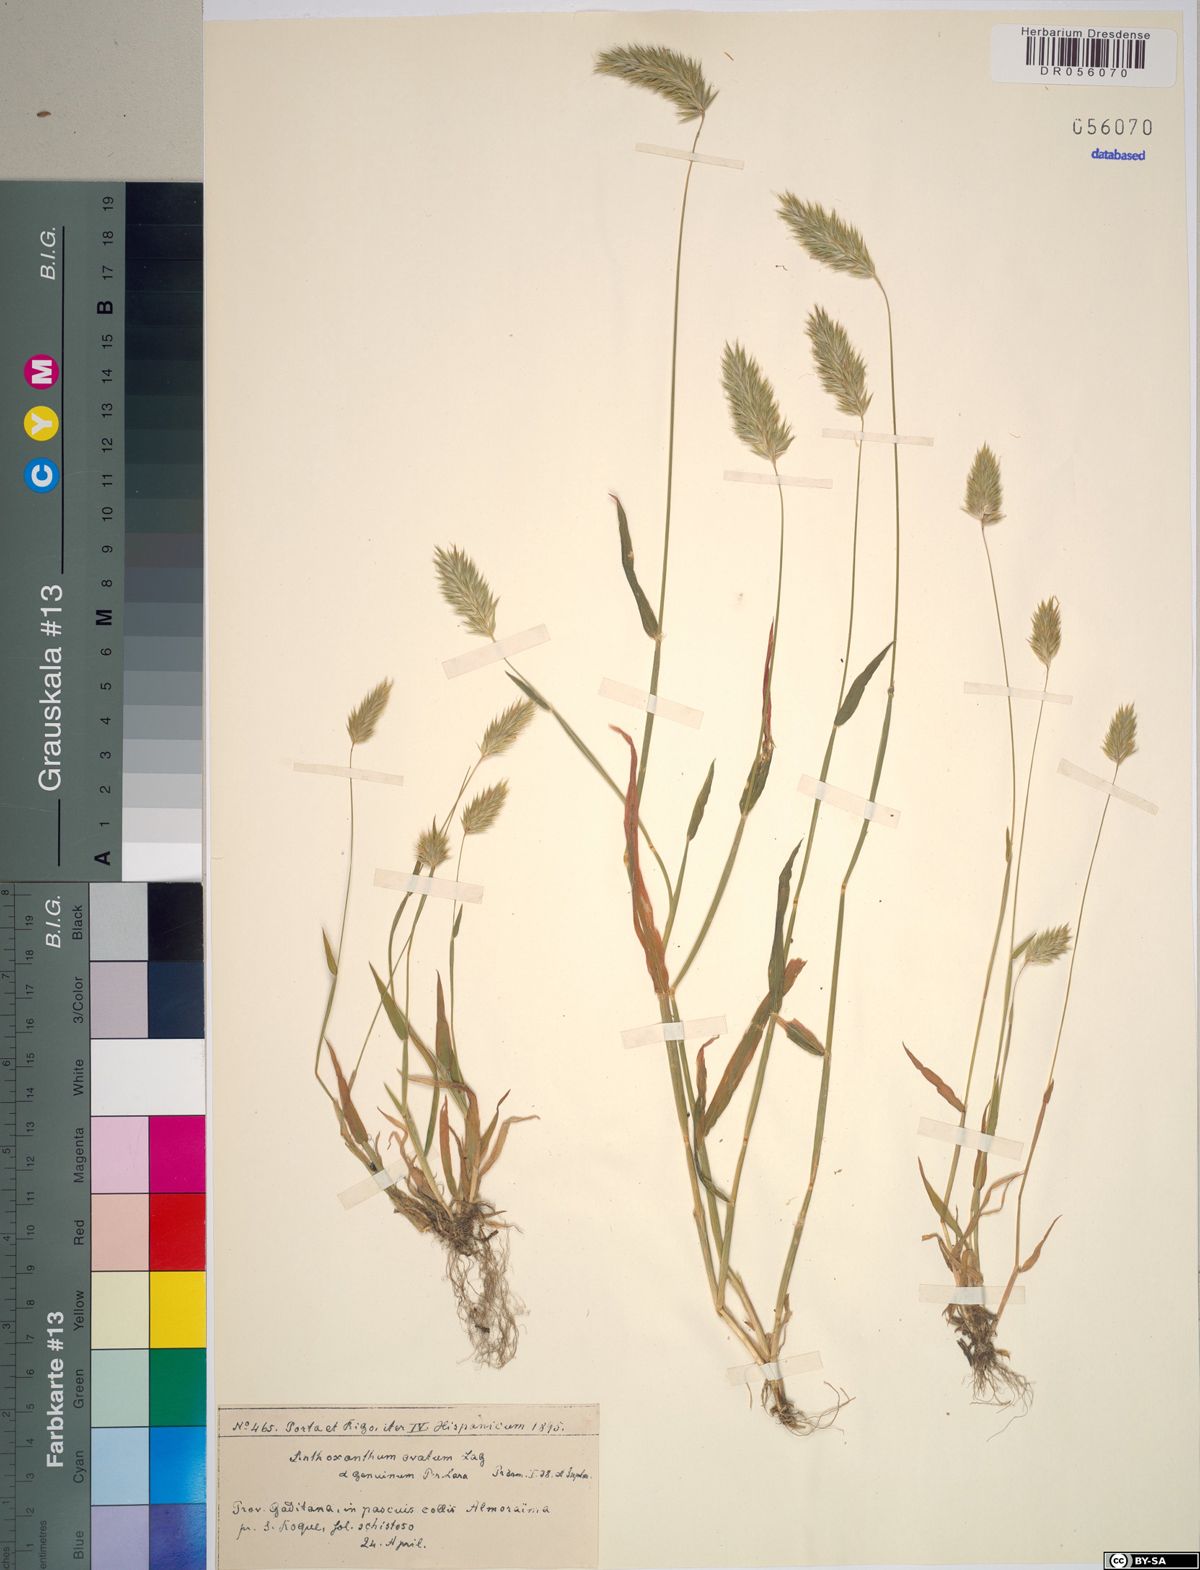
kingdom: Plantae
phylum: Tracheophyta
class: Liliopsida
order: Poales
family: Poaceae
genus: Anthoxanthum
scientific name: Anthoxanthum ovatum
